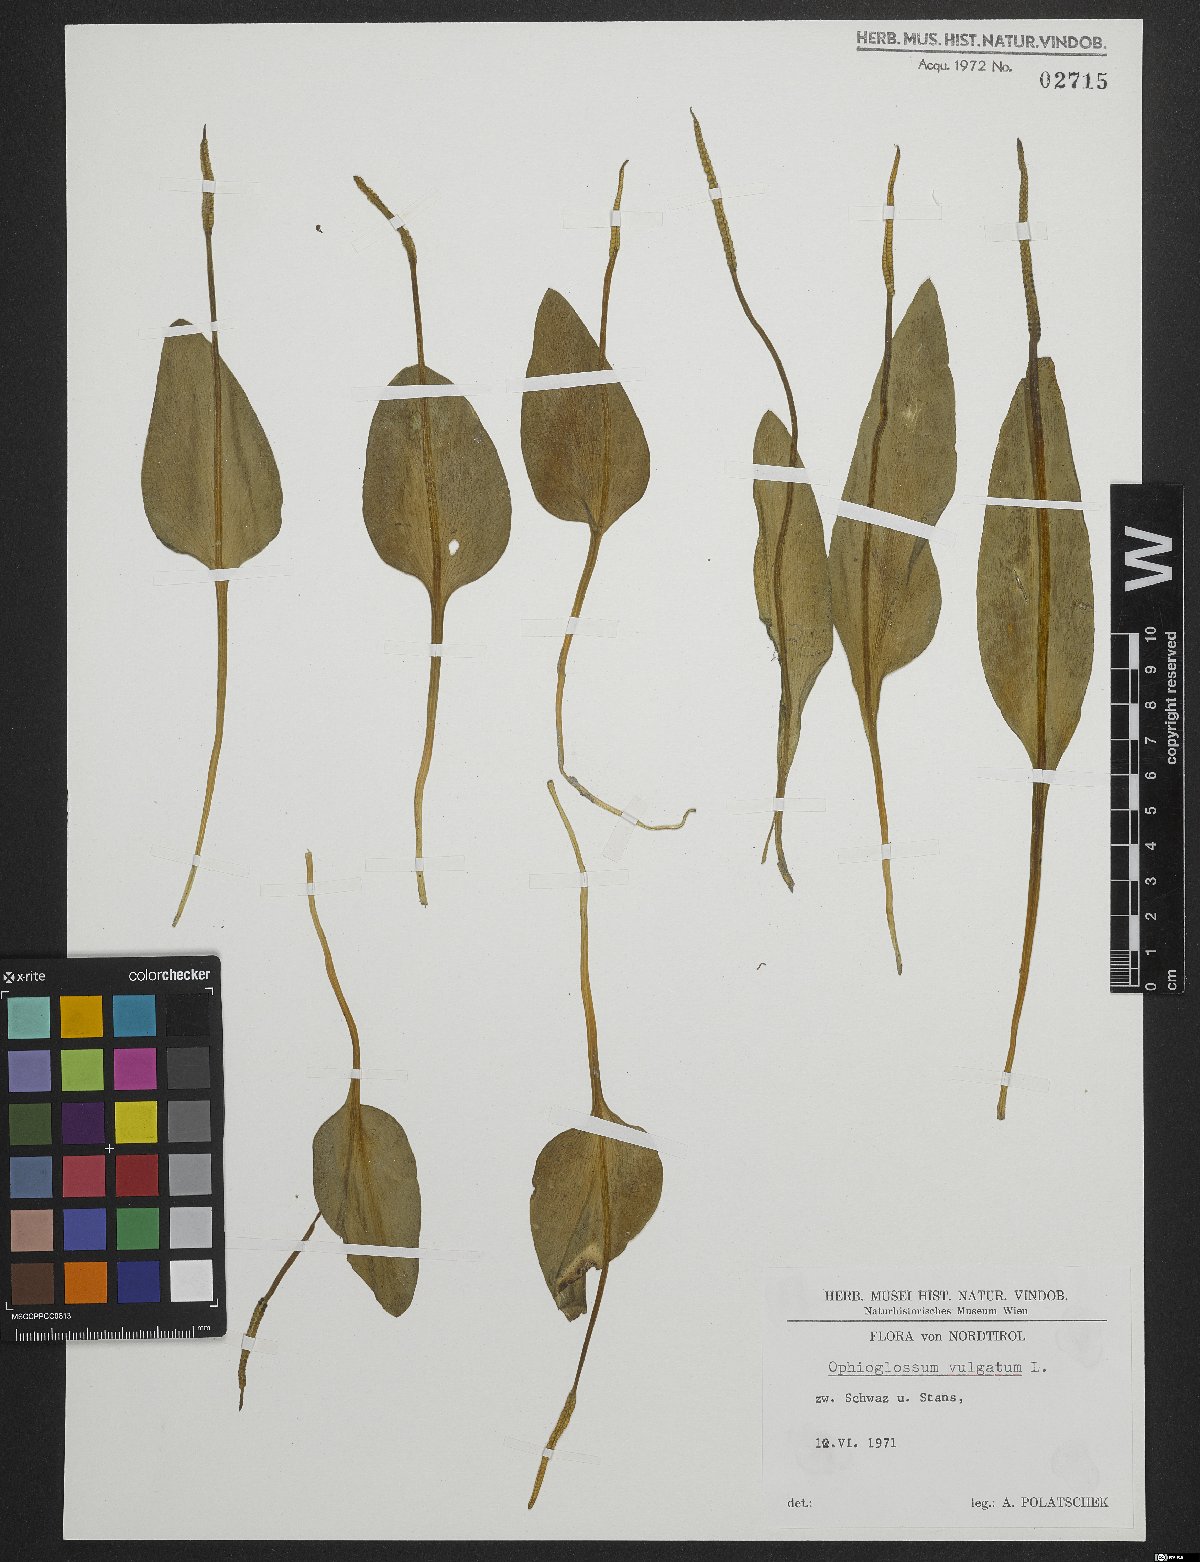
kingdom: Plantae
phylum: Tracheophyta
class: Polypodiopsida
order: Ophioglossales
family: Ophioglossaceae
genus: Ophioglossum
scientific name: Ophioglossum vulgatum
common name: Adder's-tongue
